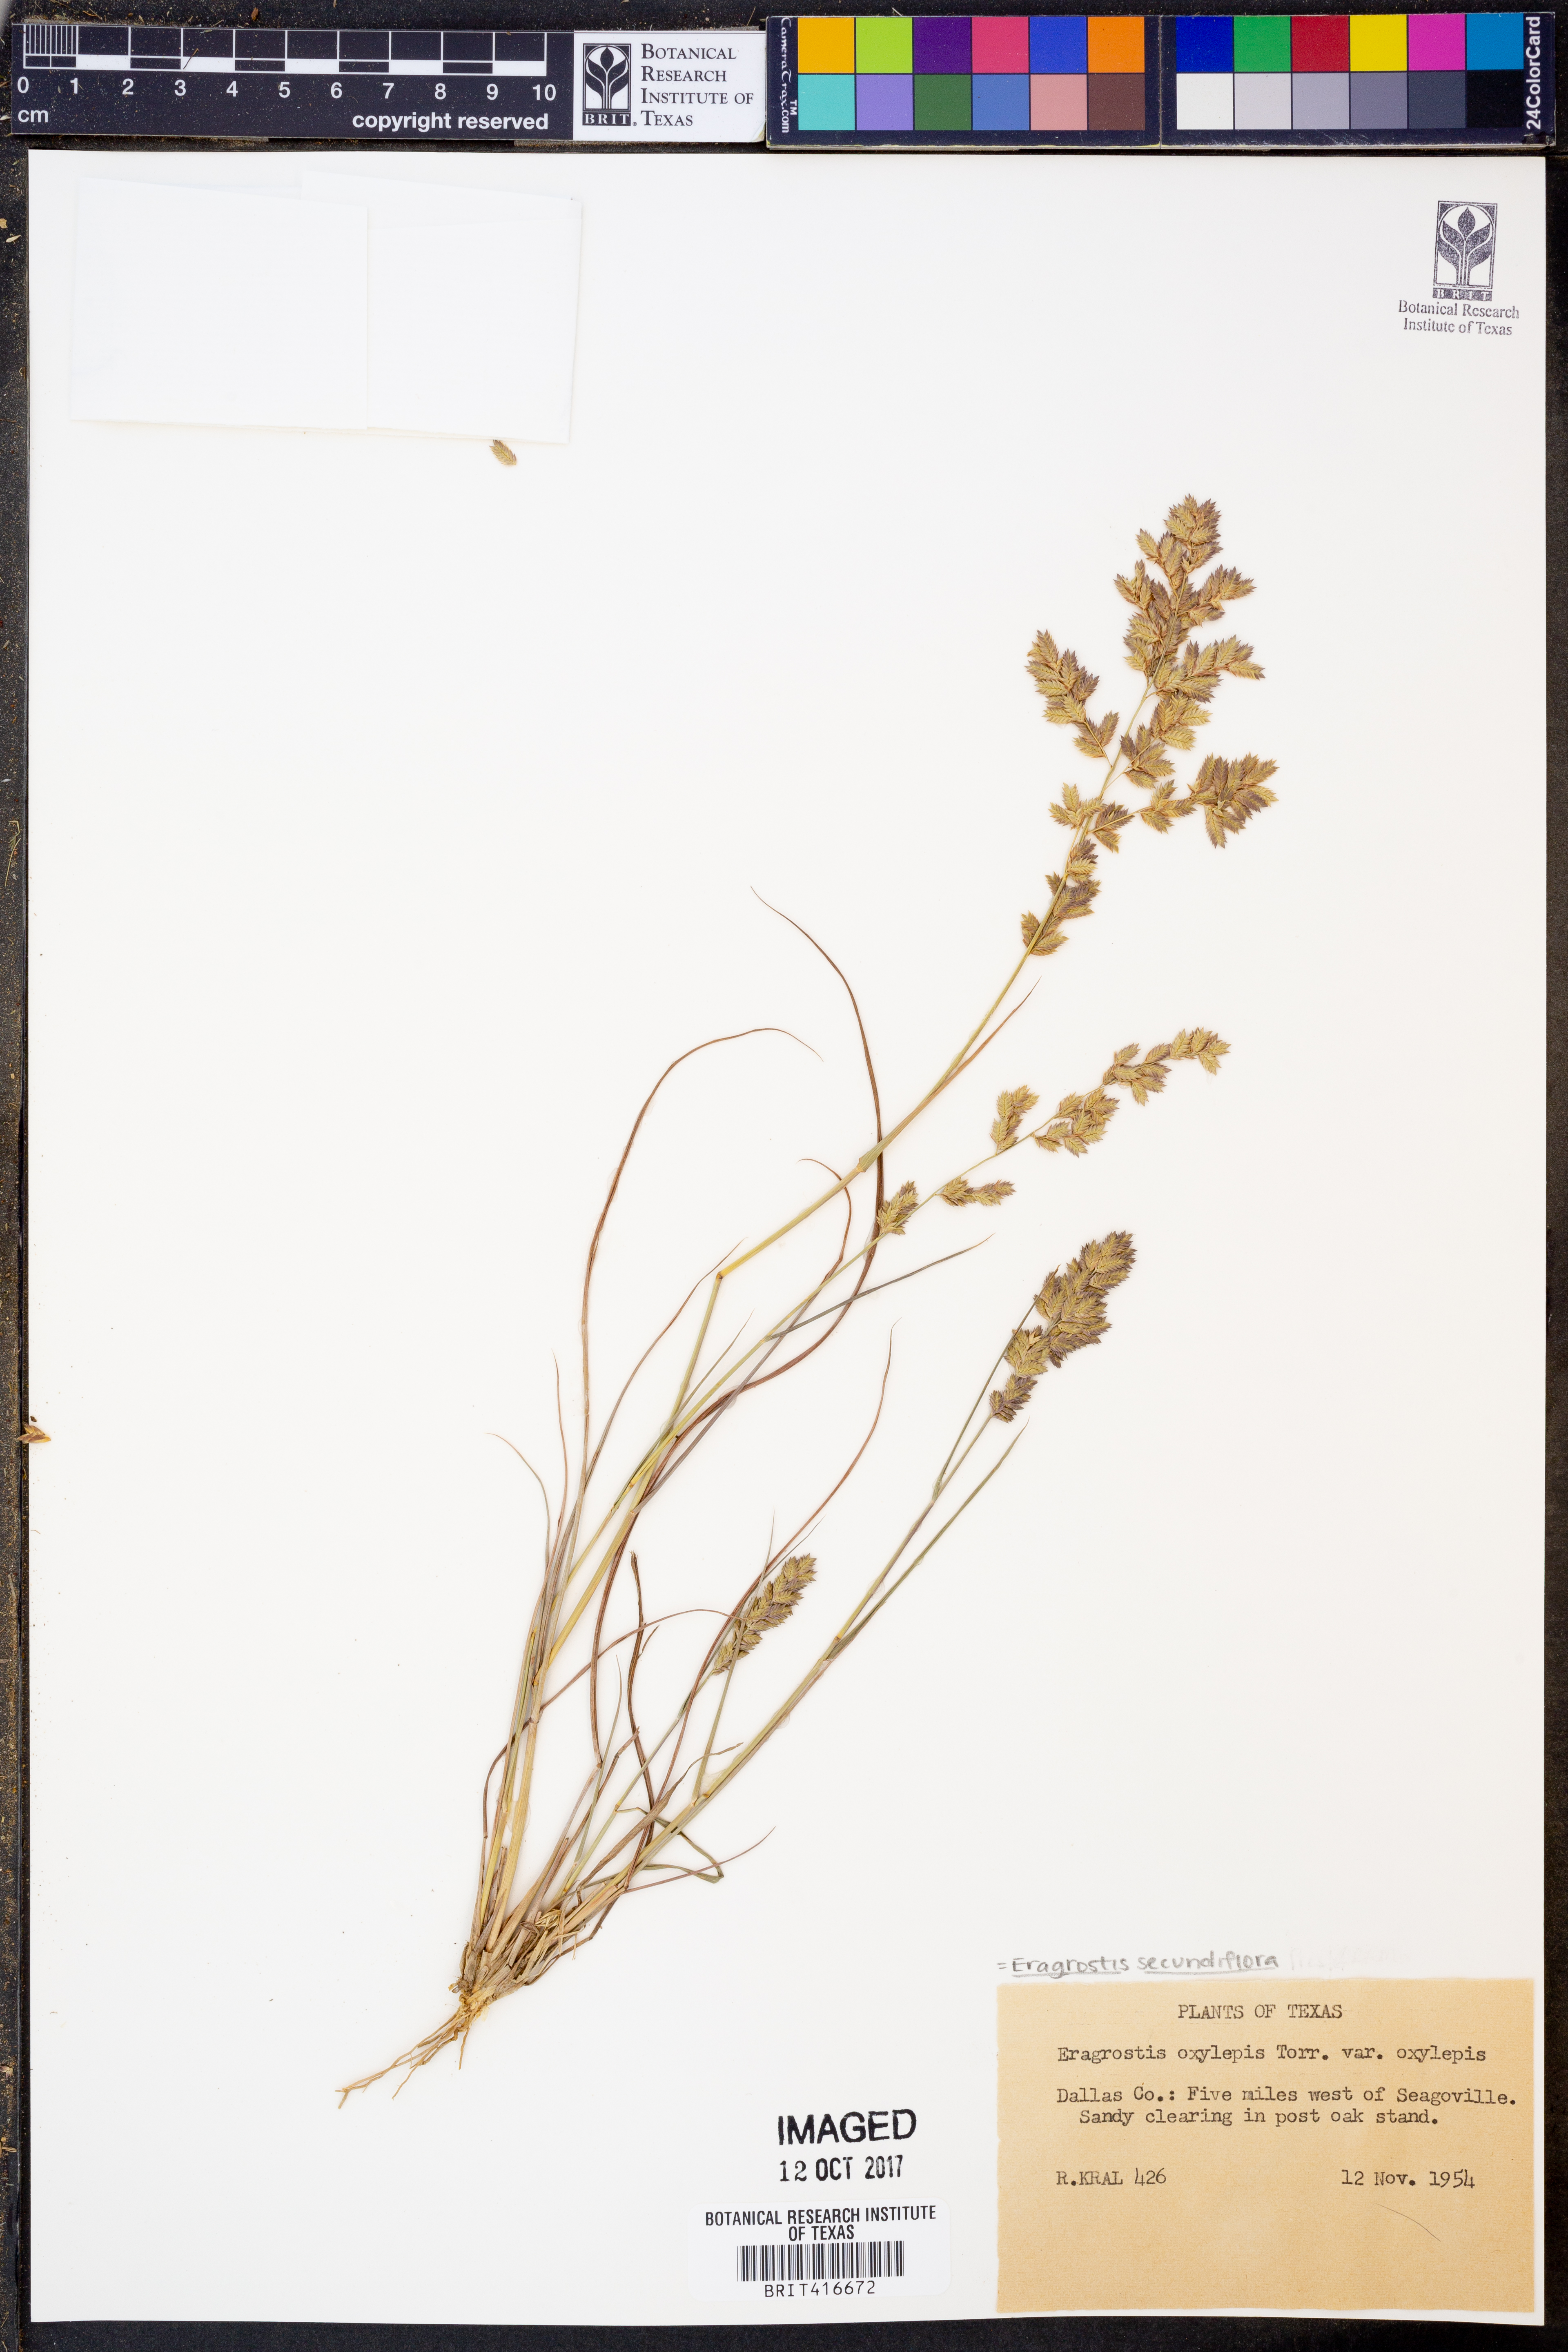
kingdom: Plantae
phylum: Tracheophyta
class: Liliopsida
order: Poales
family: Poaceae
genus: Eragrostis
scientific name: Eragrostis secundiflora
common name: Red love grass
